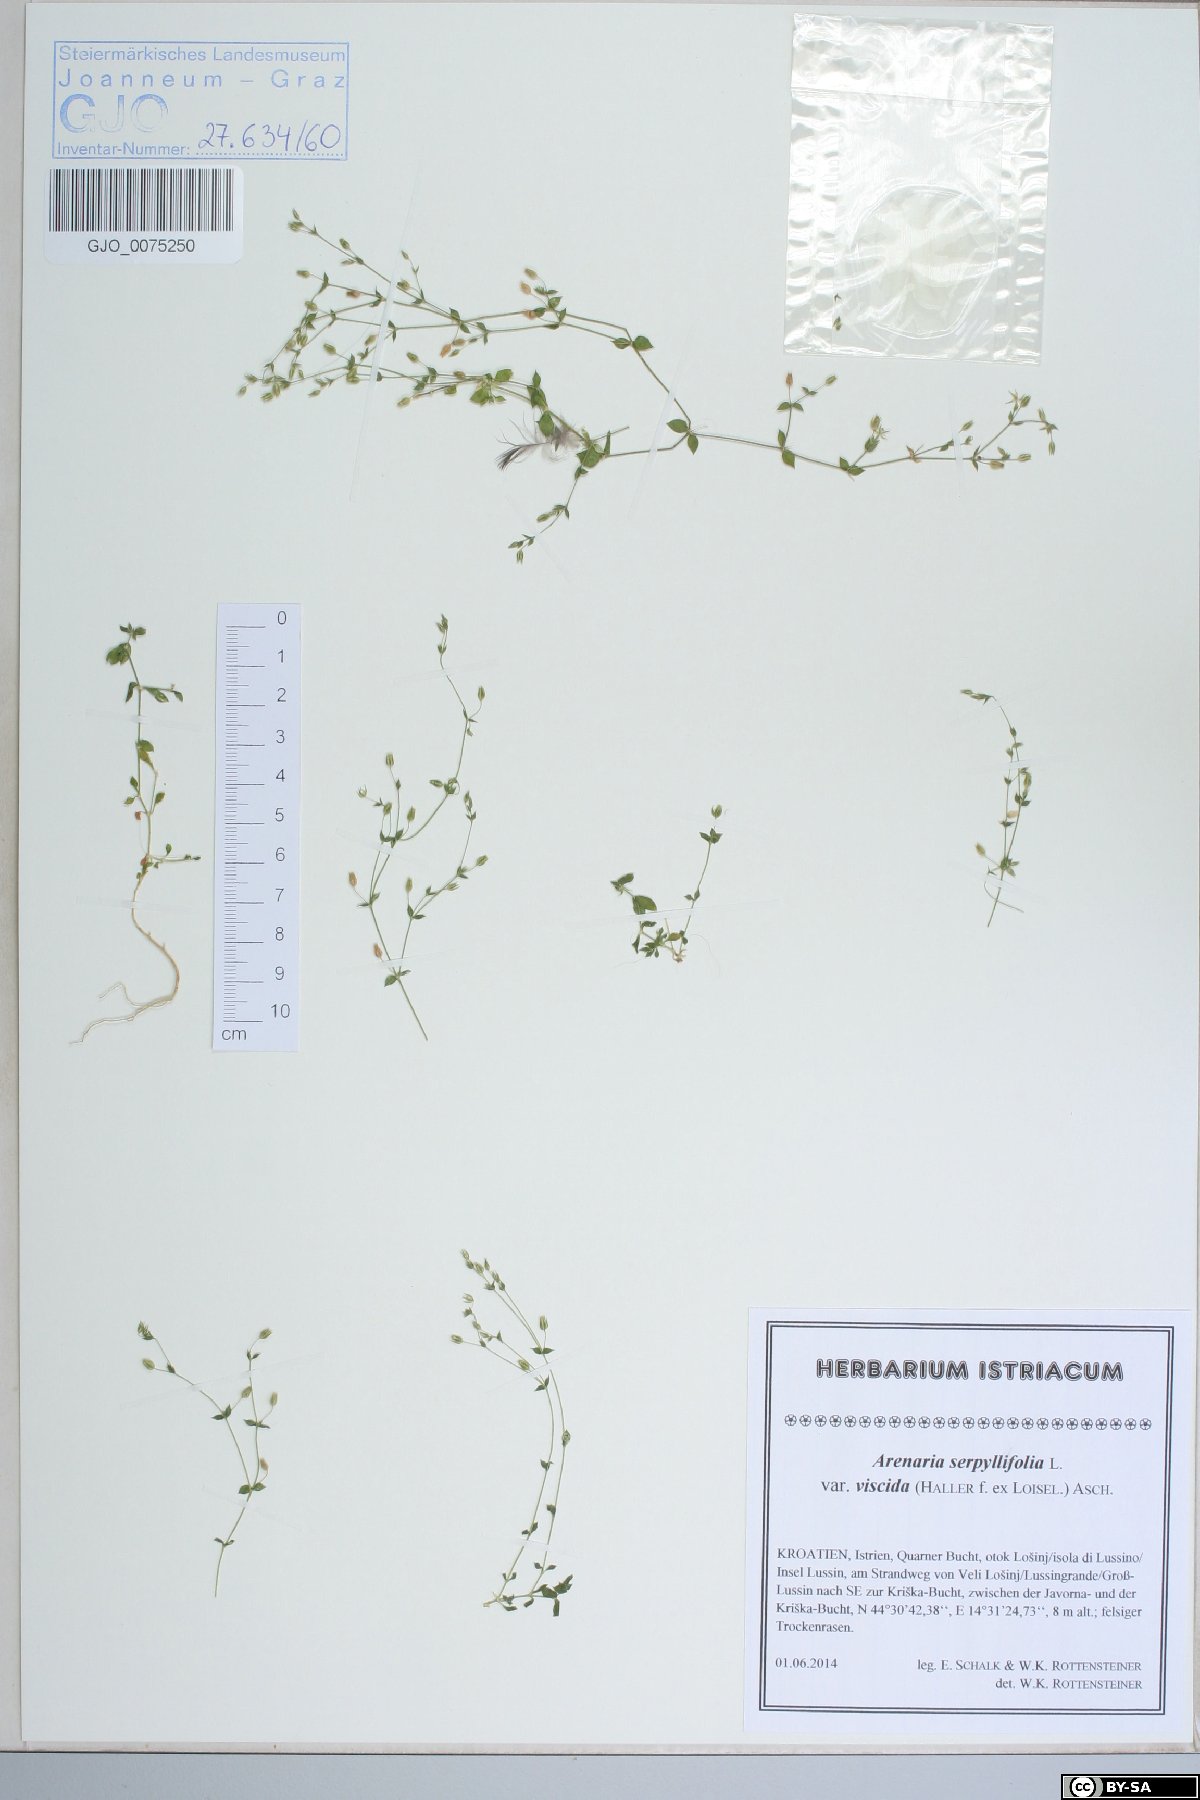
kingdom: Plantae
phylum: Tracheophyta
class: Magnoliopsida
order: Caryophyllales
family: Caryophyllaceae
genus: Arenaria
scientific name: Arenaria serpyllifolia
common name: Thyme-leaved sandwort
